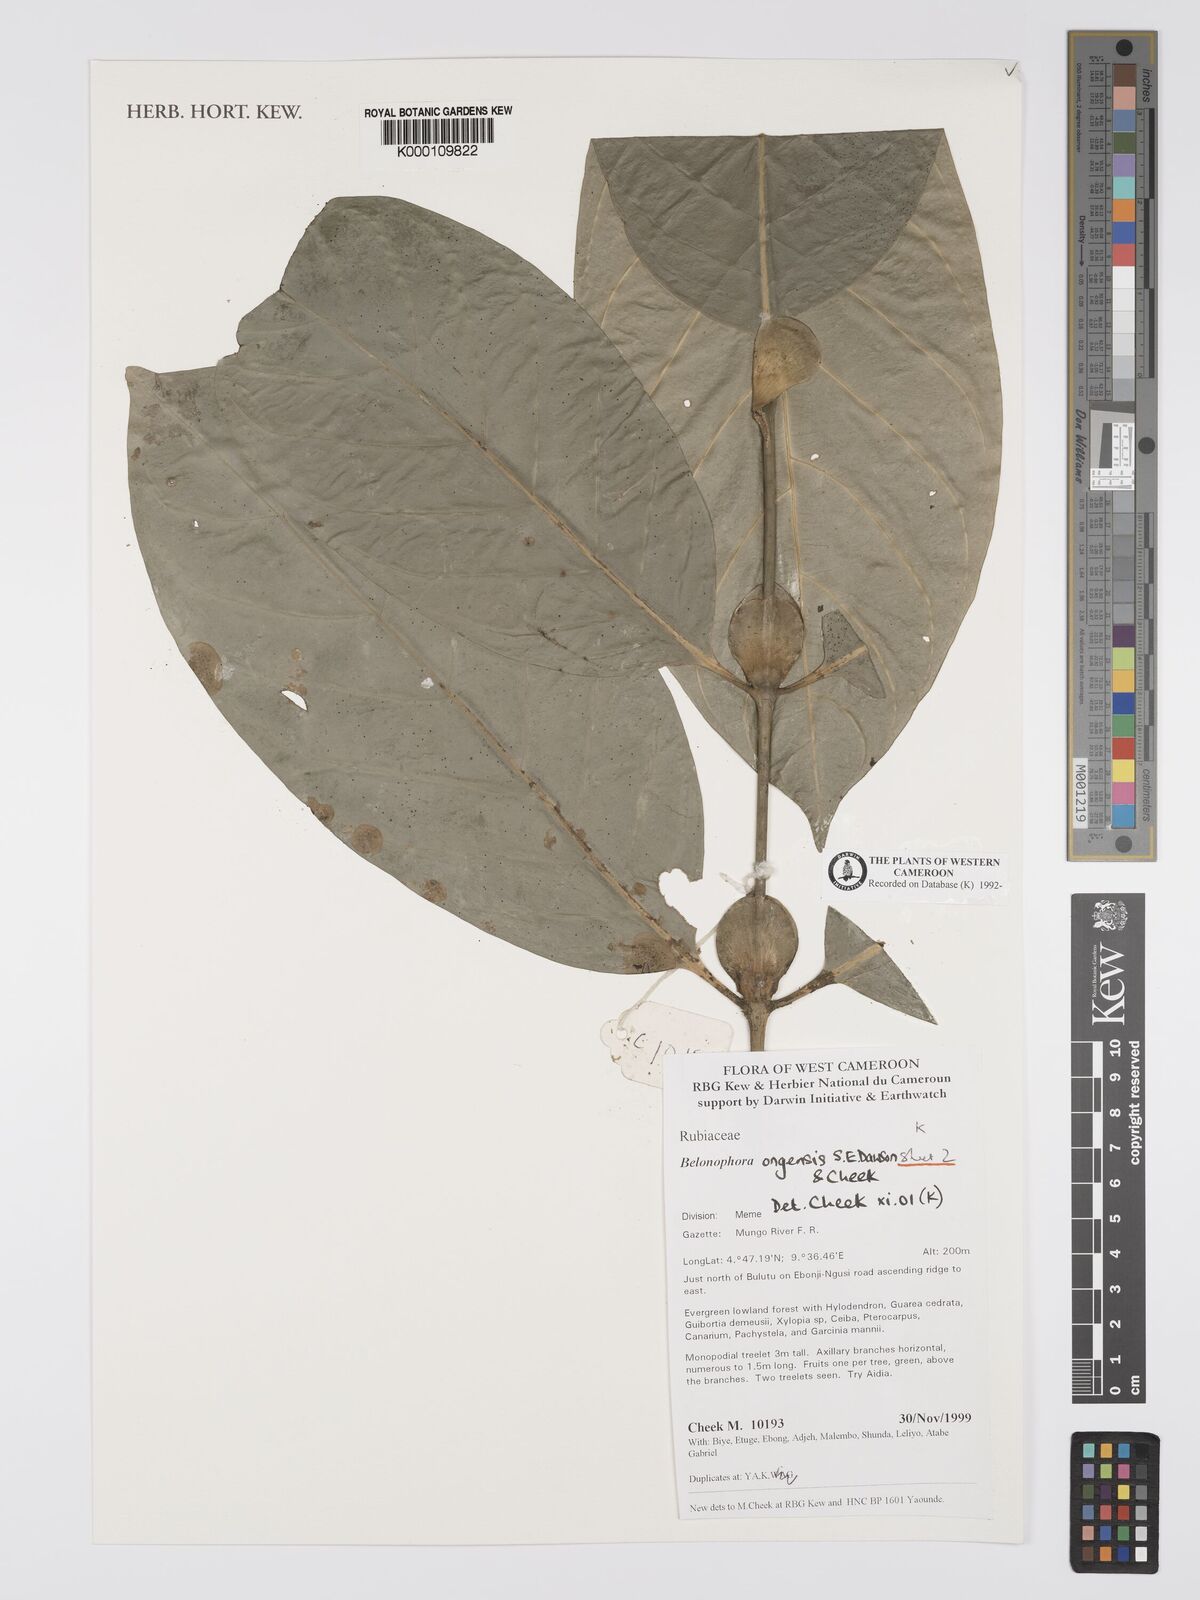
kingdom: Plantae
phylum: Tracheophyta
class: Magnoliopsida
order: Gentianales
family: Rubiaceae
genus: Belonophora
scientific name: Belonophora ongensis
